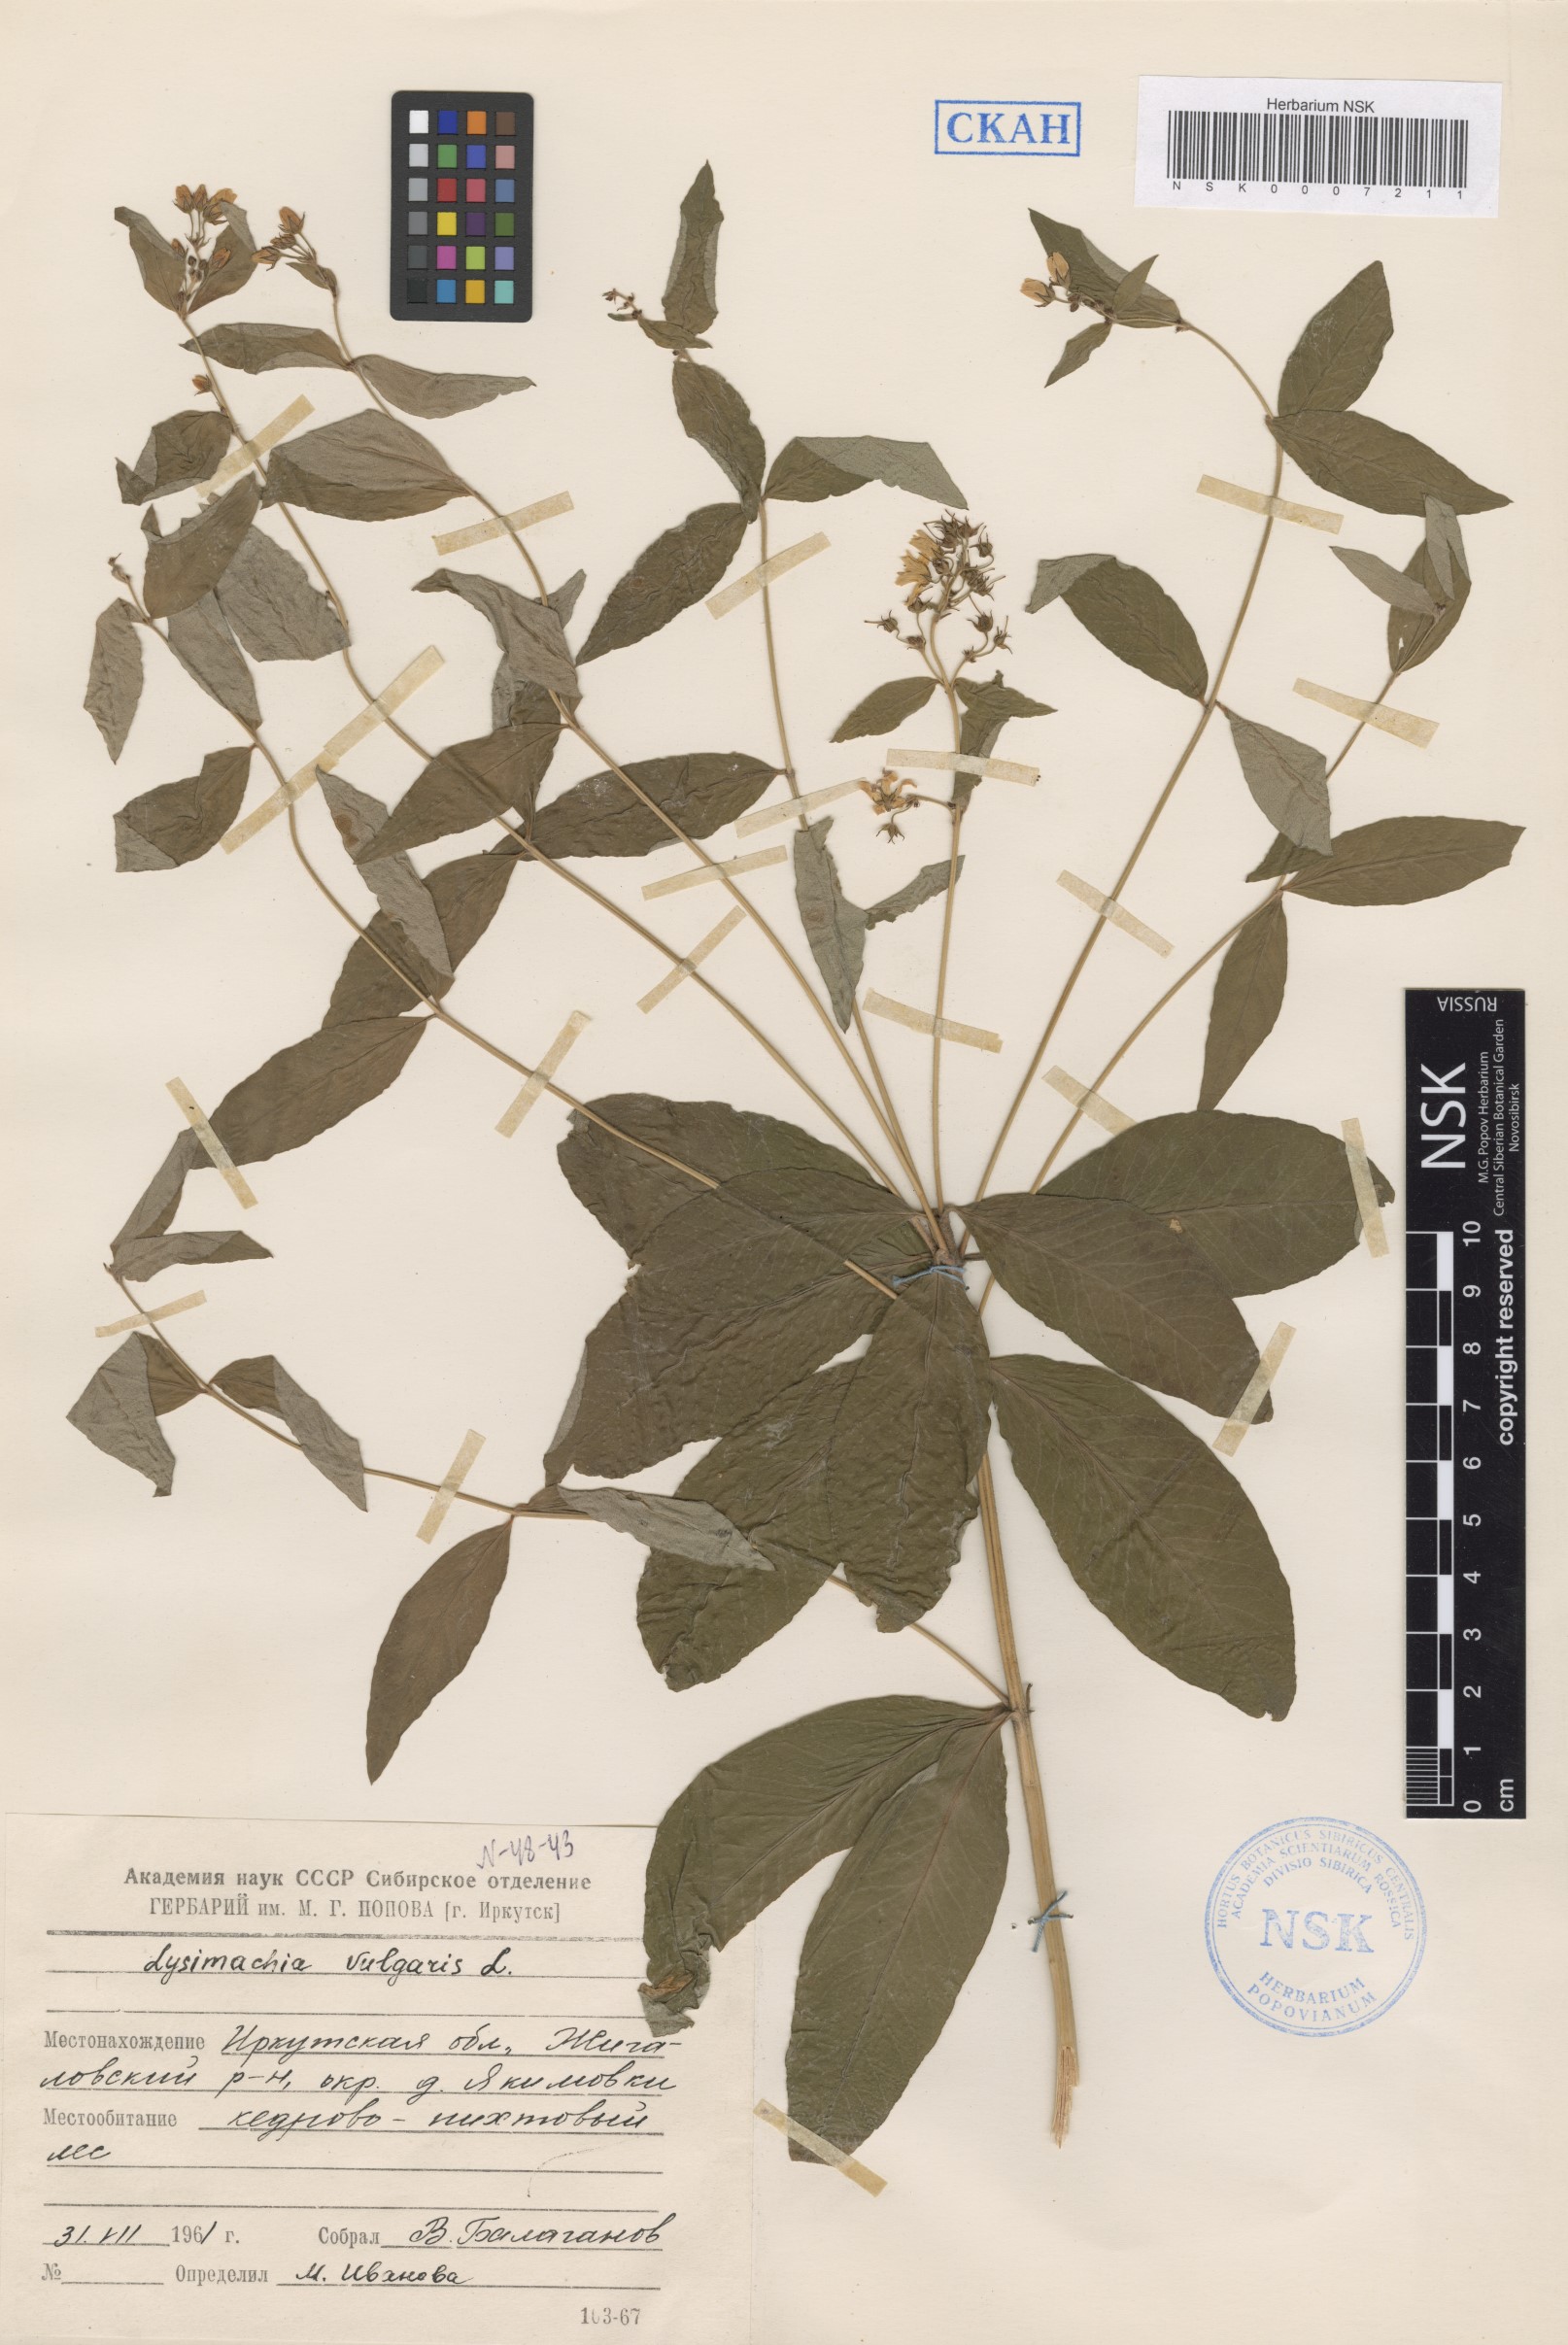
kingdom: Plantae
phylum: Tracheophyta
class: Magnoliopsida
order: Ericales
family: Primulaceae
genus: Lysimachia
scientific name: Lysimachia vulgaris
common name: Yellow loosestrife
